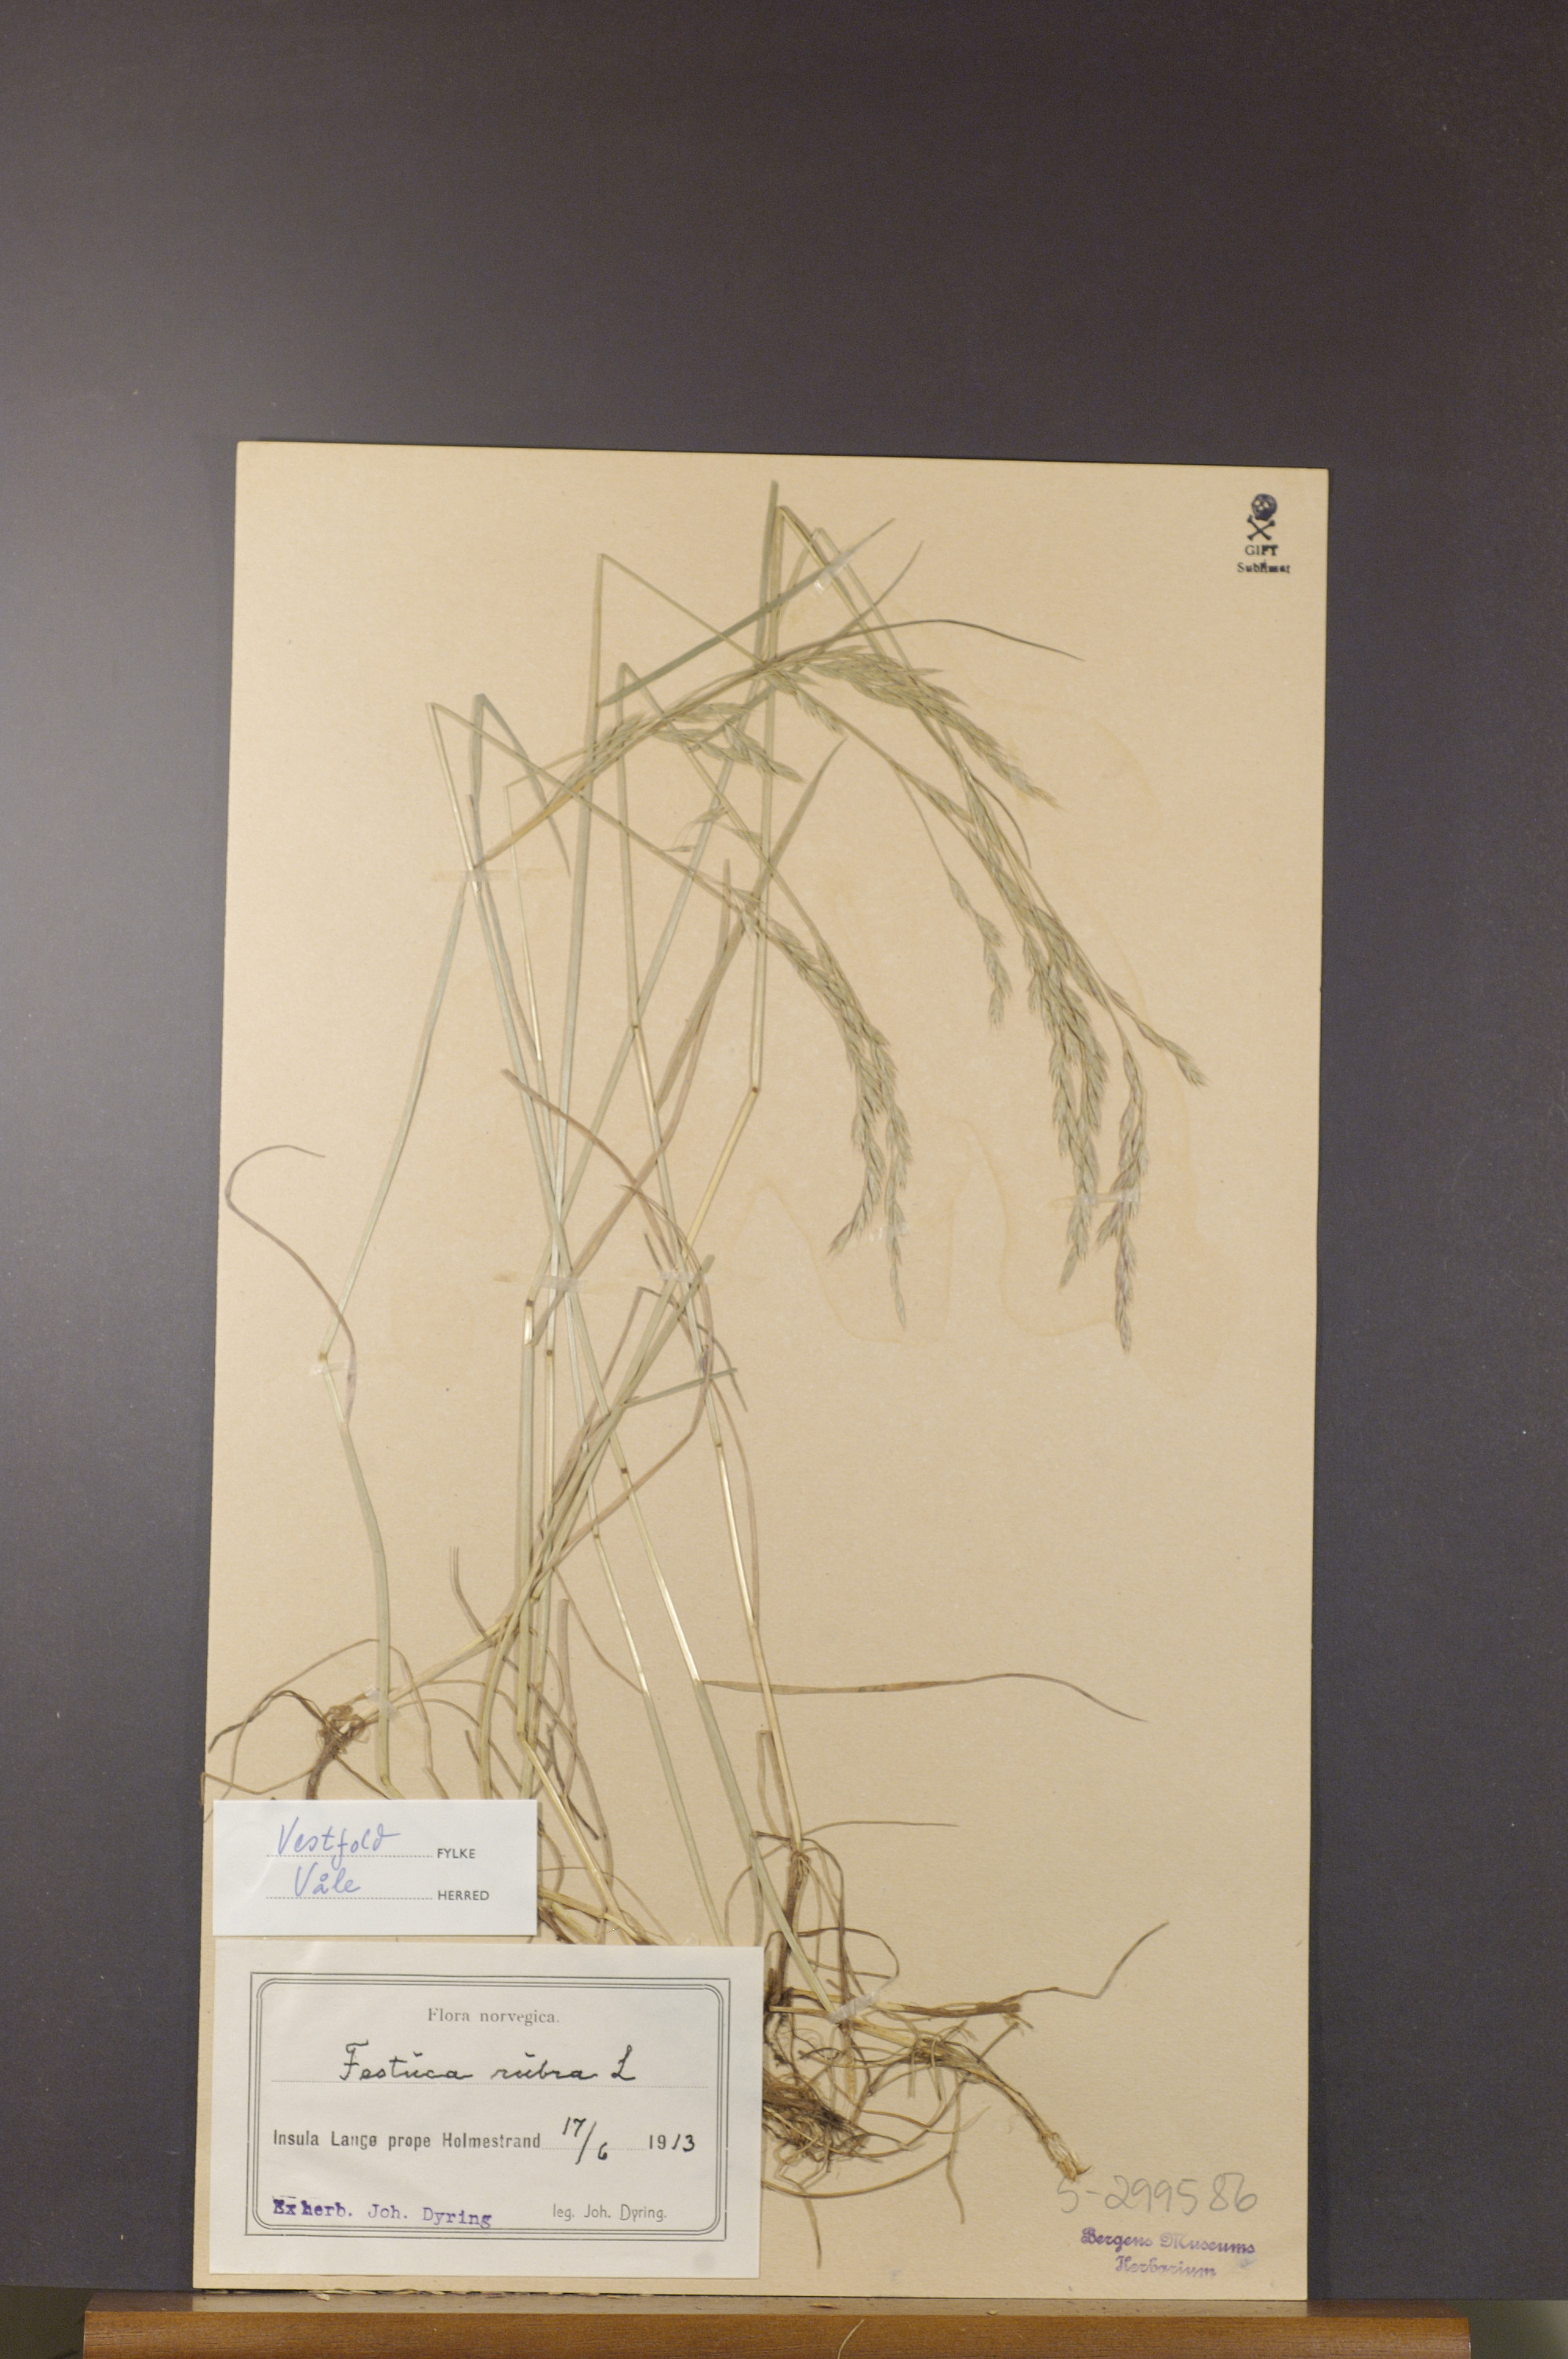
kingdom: Plantae
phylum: Tracheophyta
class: Liliopsida
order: Poales
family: Poaceae
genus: Festuca
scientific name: Festuca rubra
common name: Red fescue
